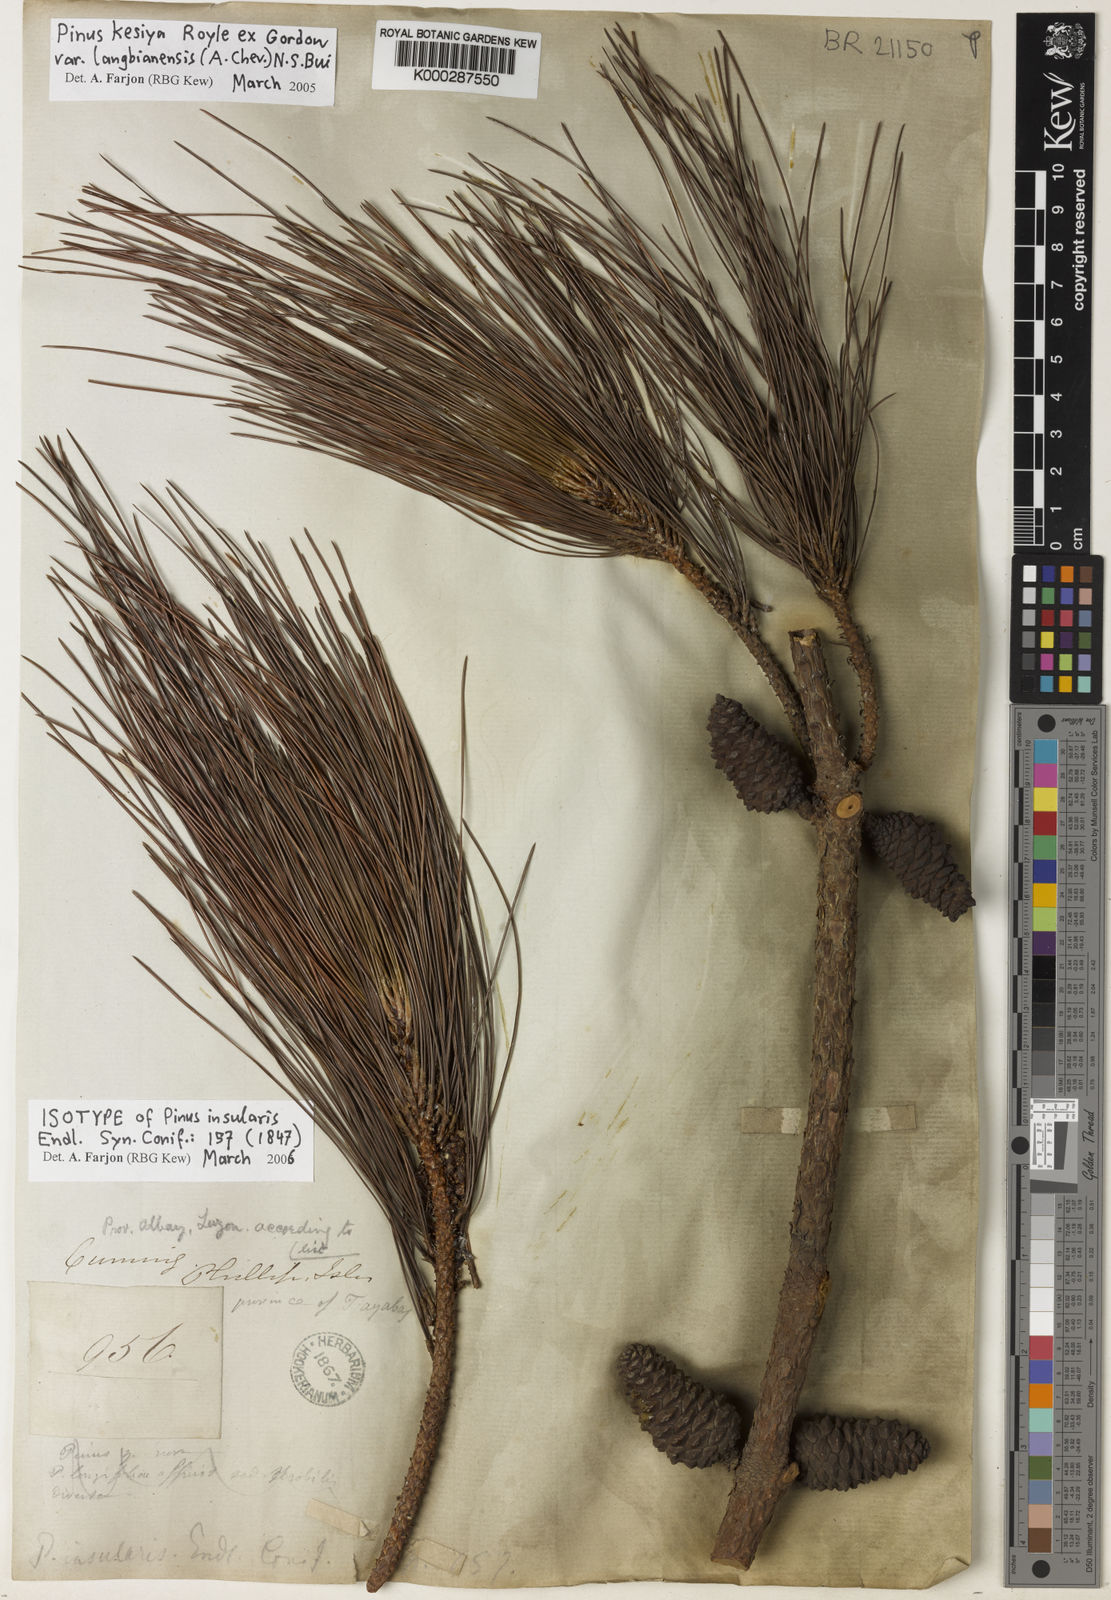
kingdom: Plantae
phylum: Tracheophyta
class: Pinopsida
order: Pinales
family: Pinaceae
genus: Pinus
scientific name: Pinus kesiya
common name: Benguet pine
